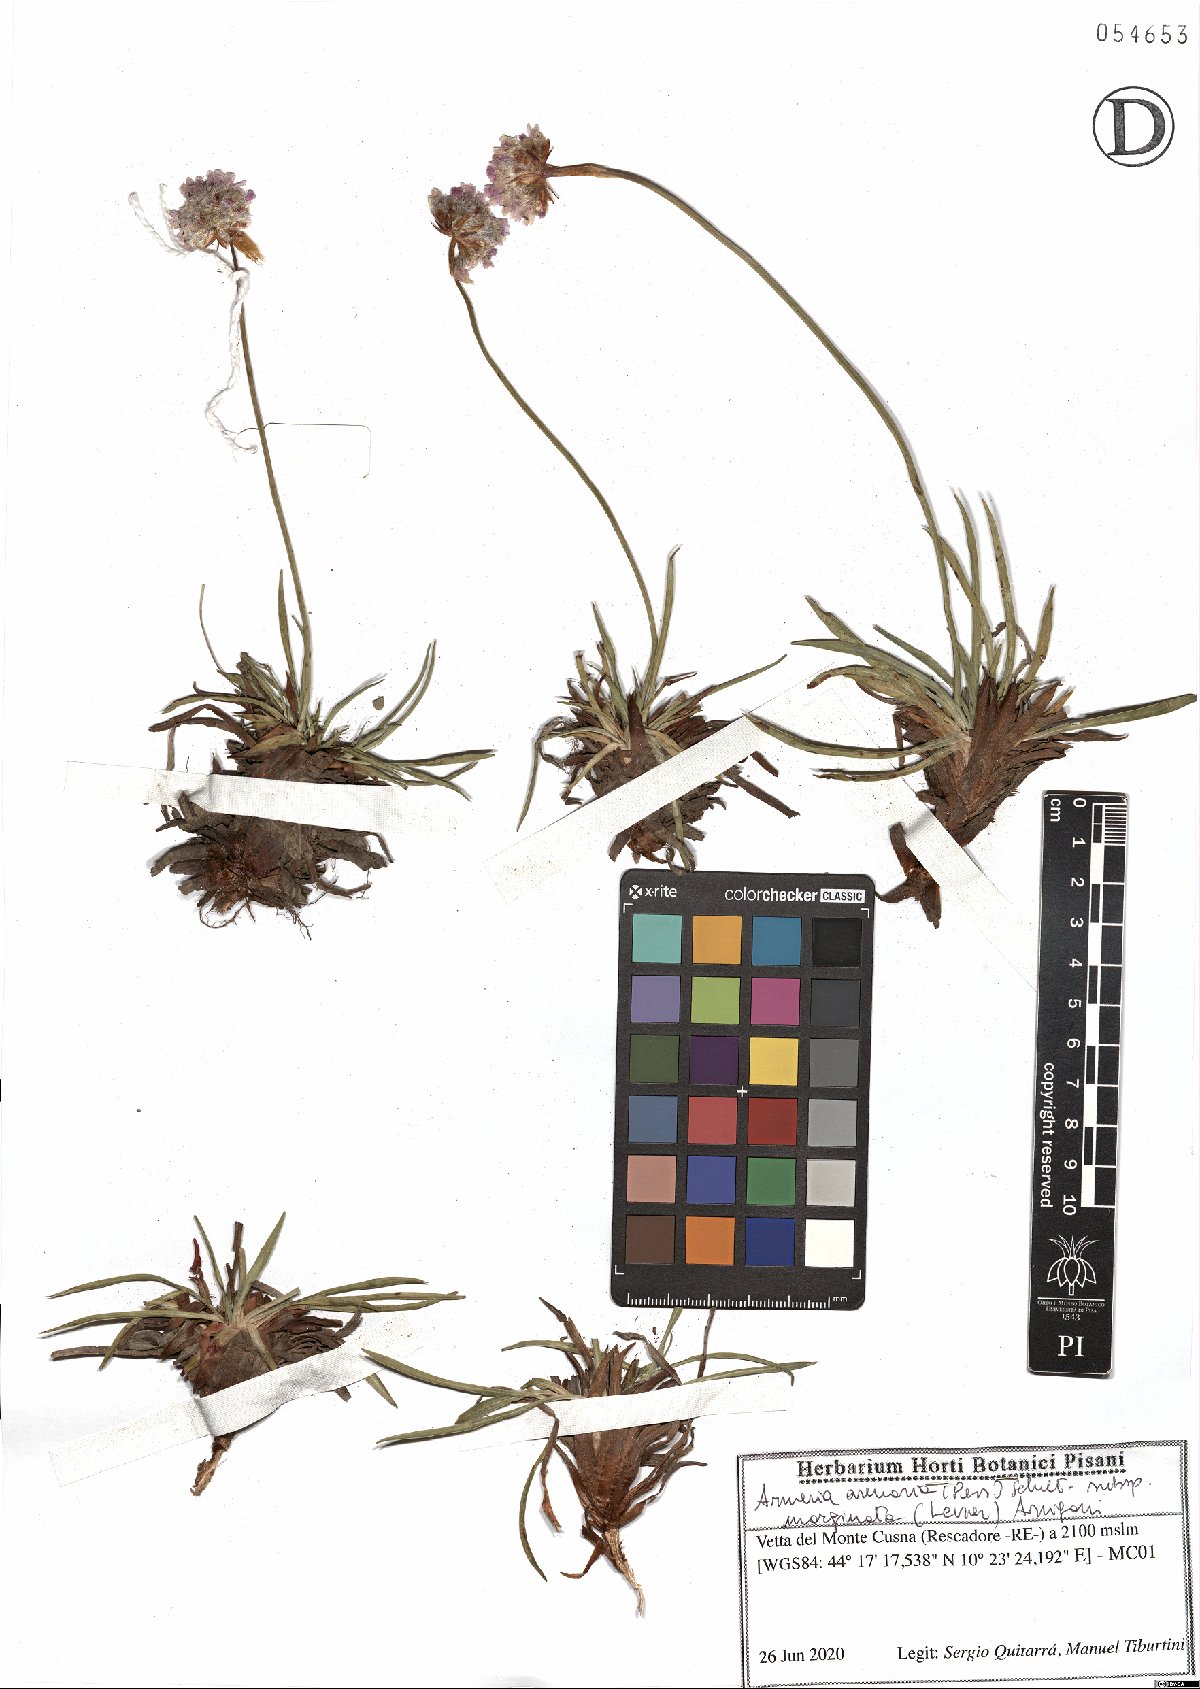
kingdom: Plantae
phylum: Tracheophyta
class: Magnoliopsida
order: Caryophyllales
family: Plumbaginaceae
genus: Armeria
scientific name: Armeria arenaria
